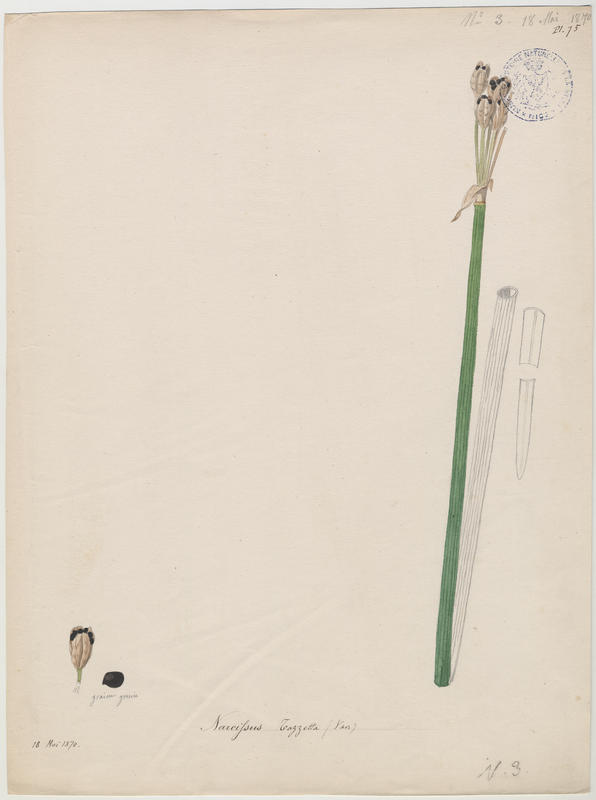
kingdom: Plantae
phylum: Tracheophyta
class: Liliopsida
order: Asparagales
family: Amaryllidaceae
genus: Narcissus
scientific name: Narcissus tazetta
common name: Bunch-flowered daffodil
